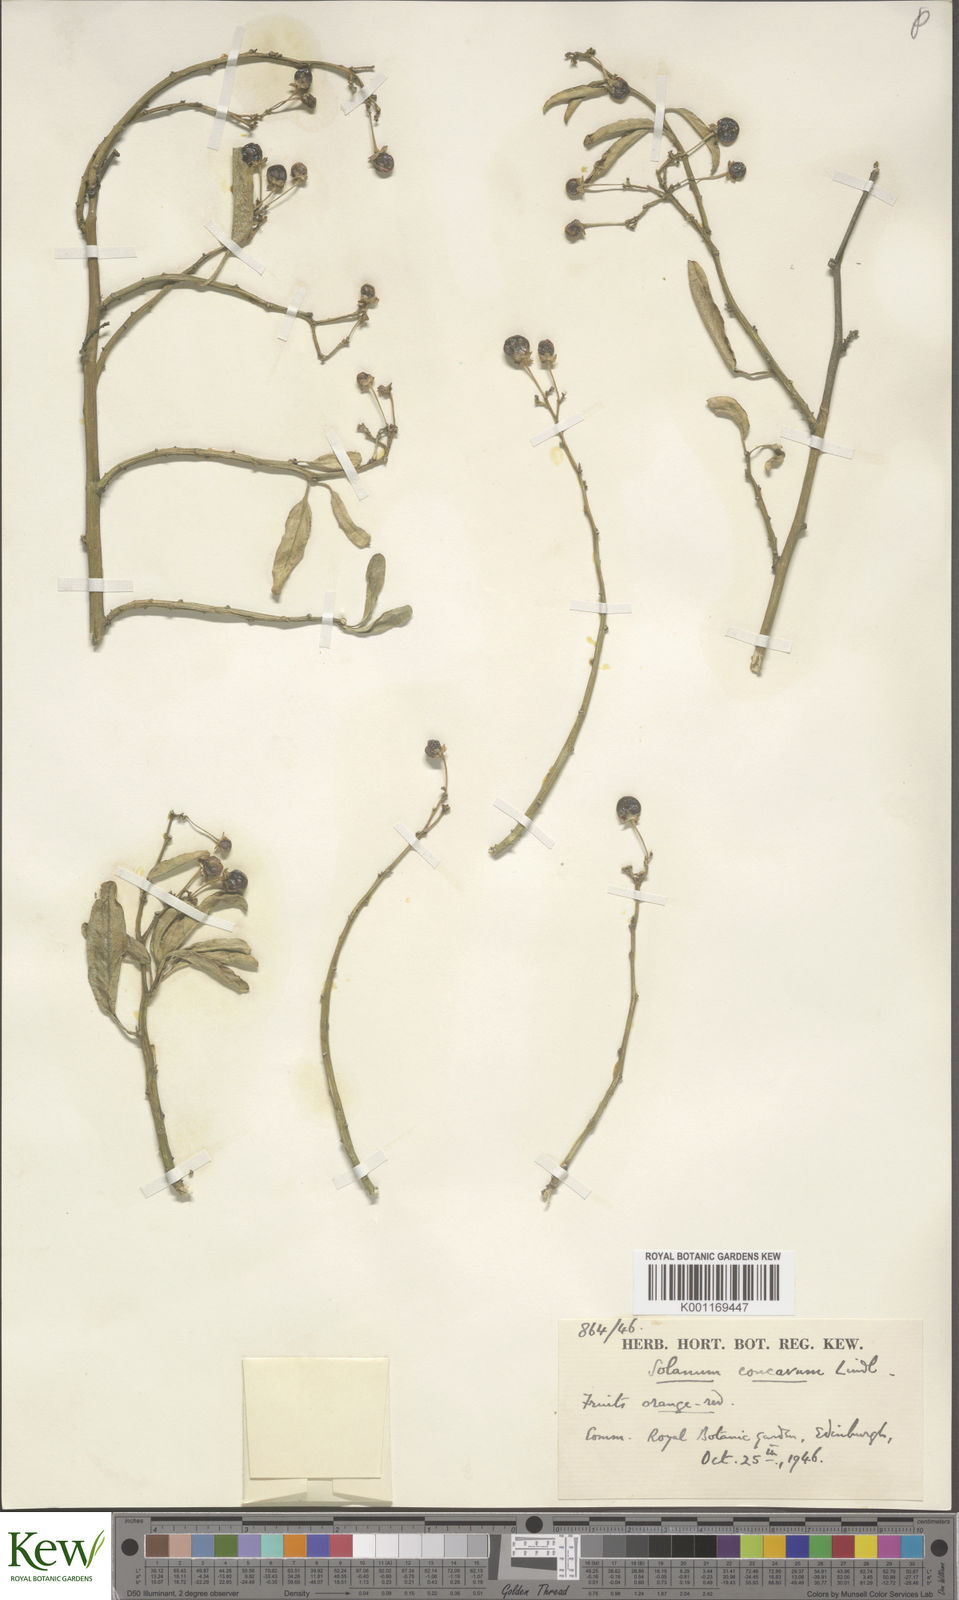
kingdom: Plantae
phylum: Tracheophyta
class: Magnoliopsida
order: Solanales
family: Solanaceae
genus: Solanum
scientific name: Solanum crispum
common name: Chilean nightshade
